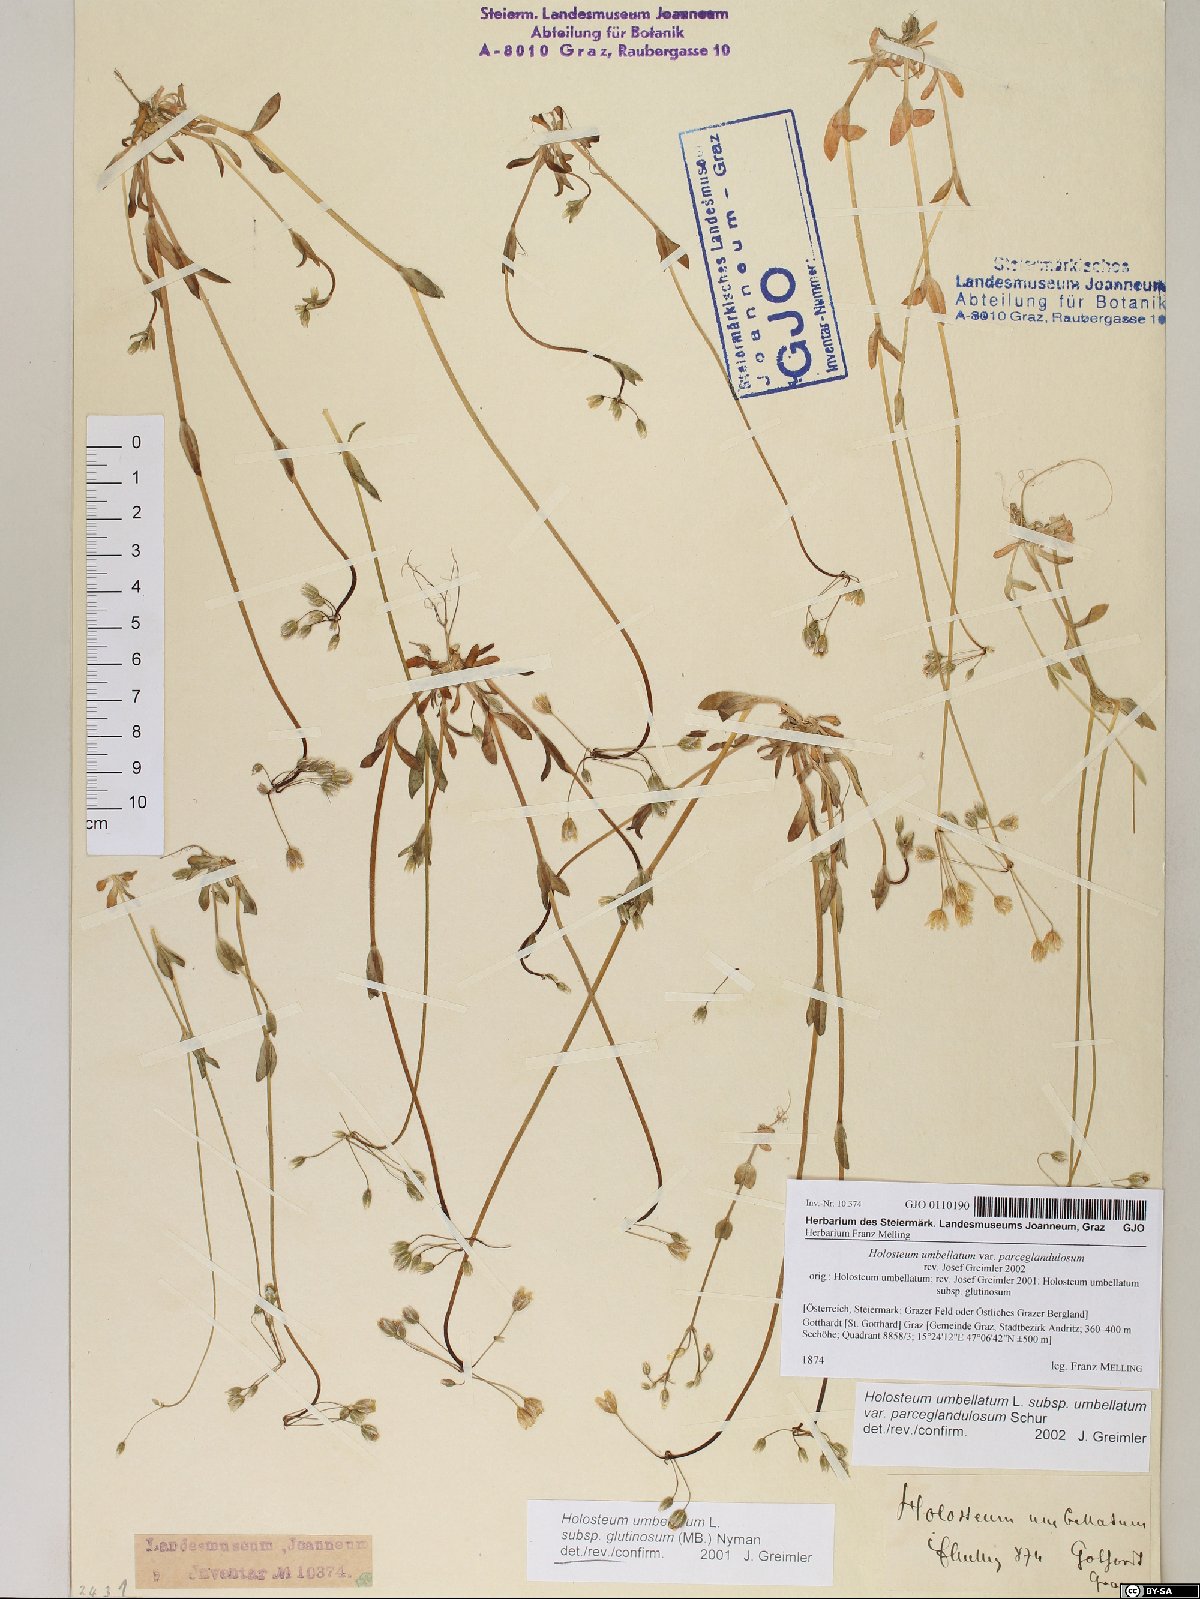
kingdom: Plantae
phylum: Tracheophyta
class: Magnoliopsida
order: Caryophyllales
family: Caryophyllaceae
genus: Holosteum
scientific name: Holosteum umbellatum
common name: Jagged chickweed
